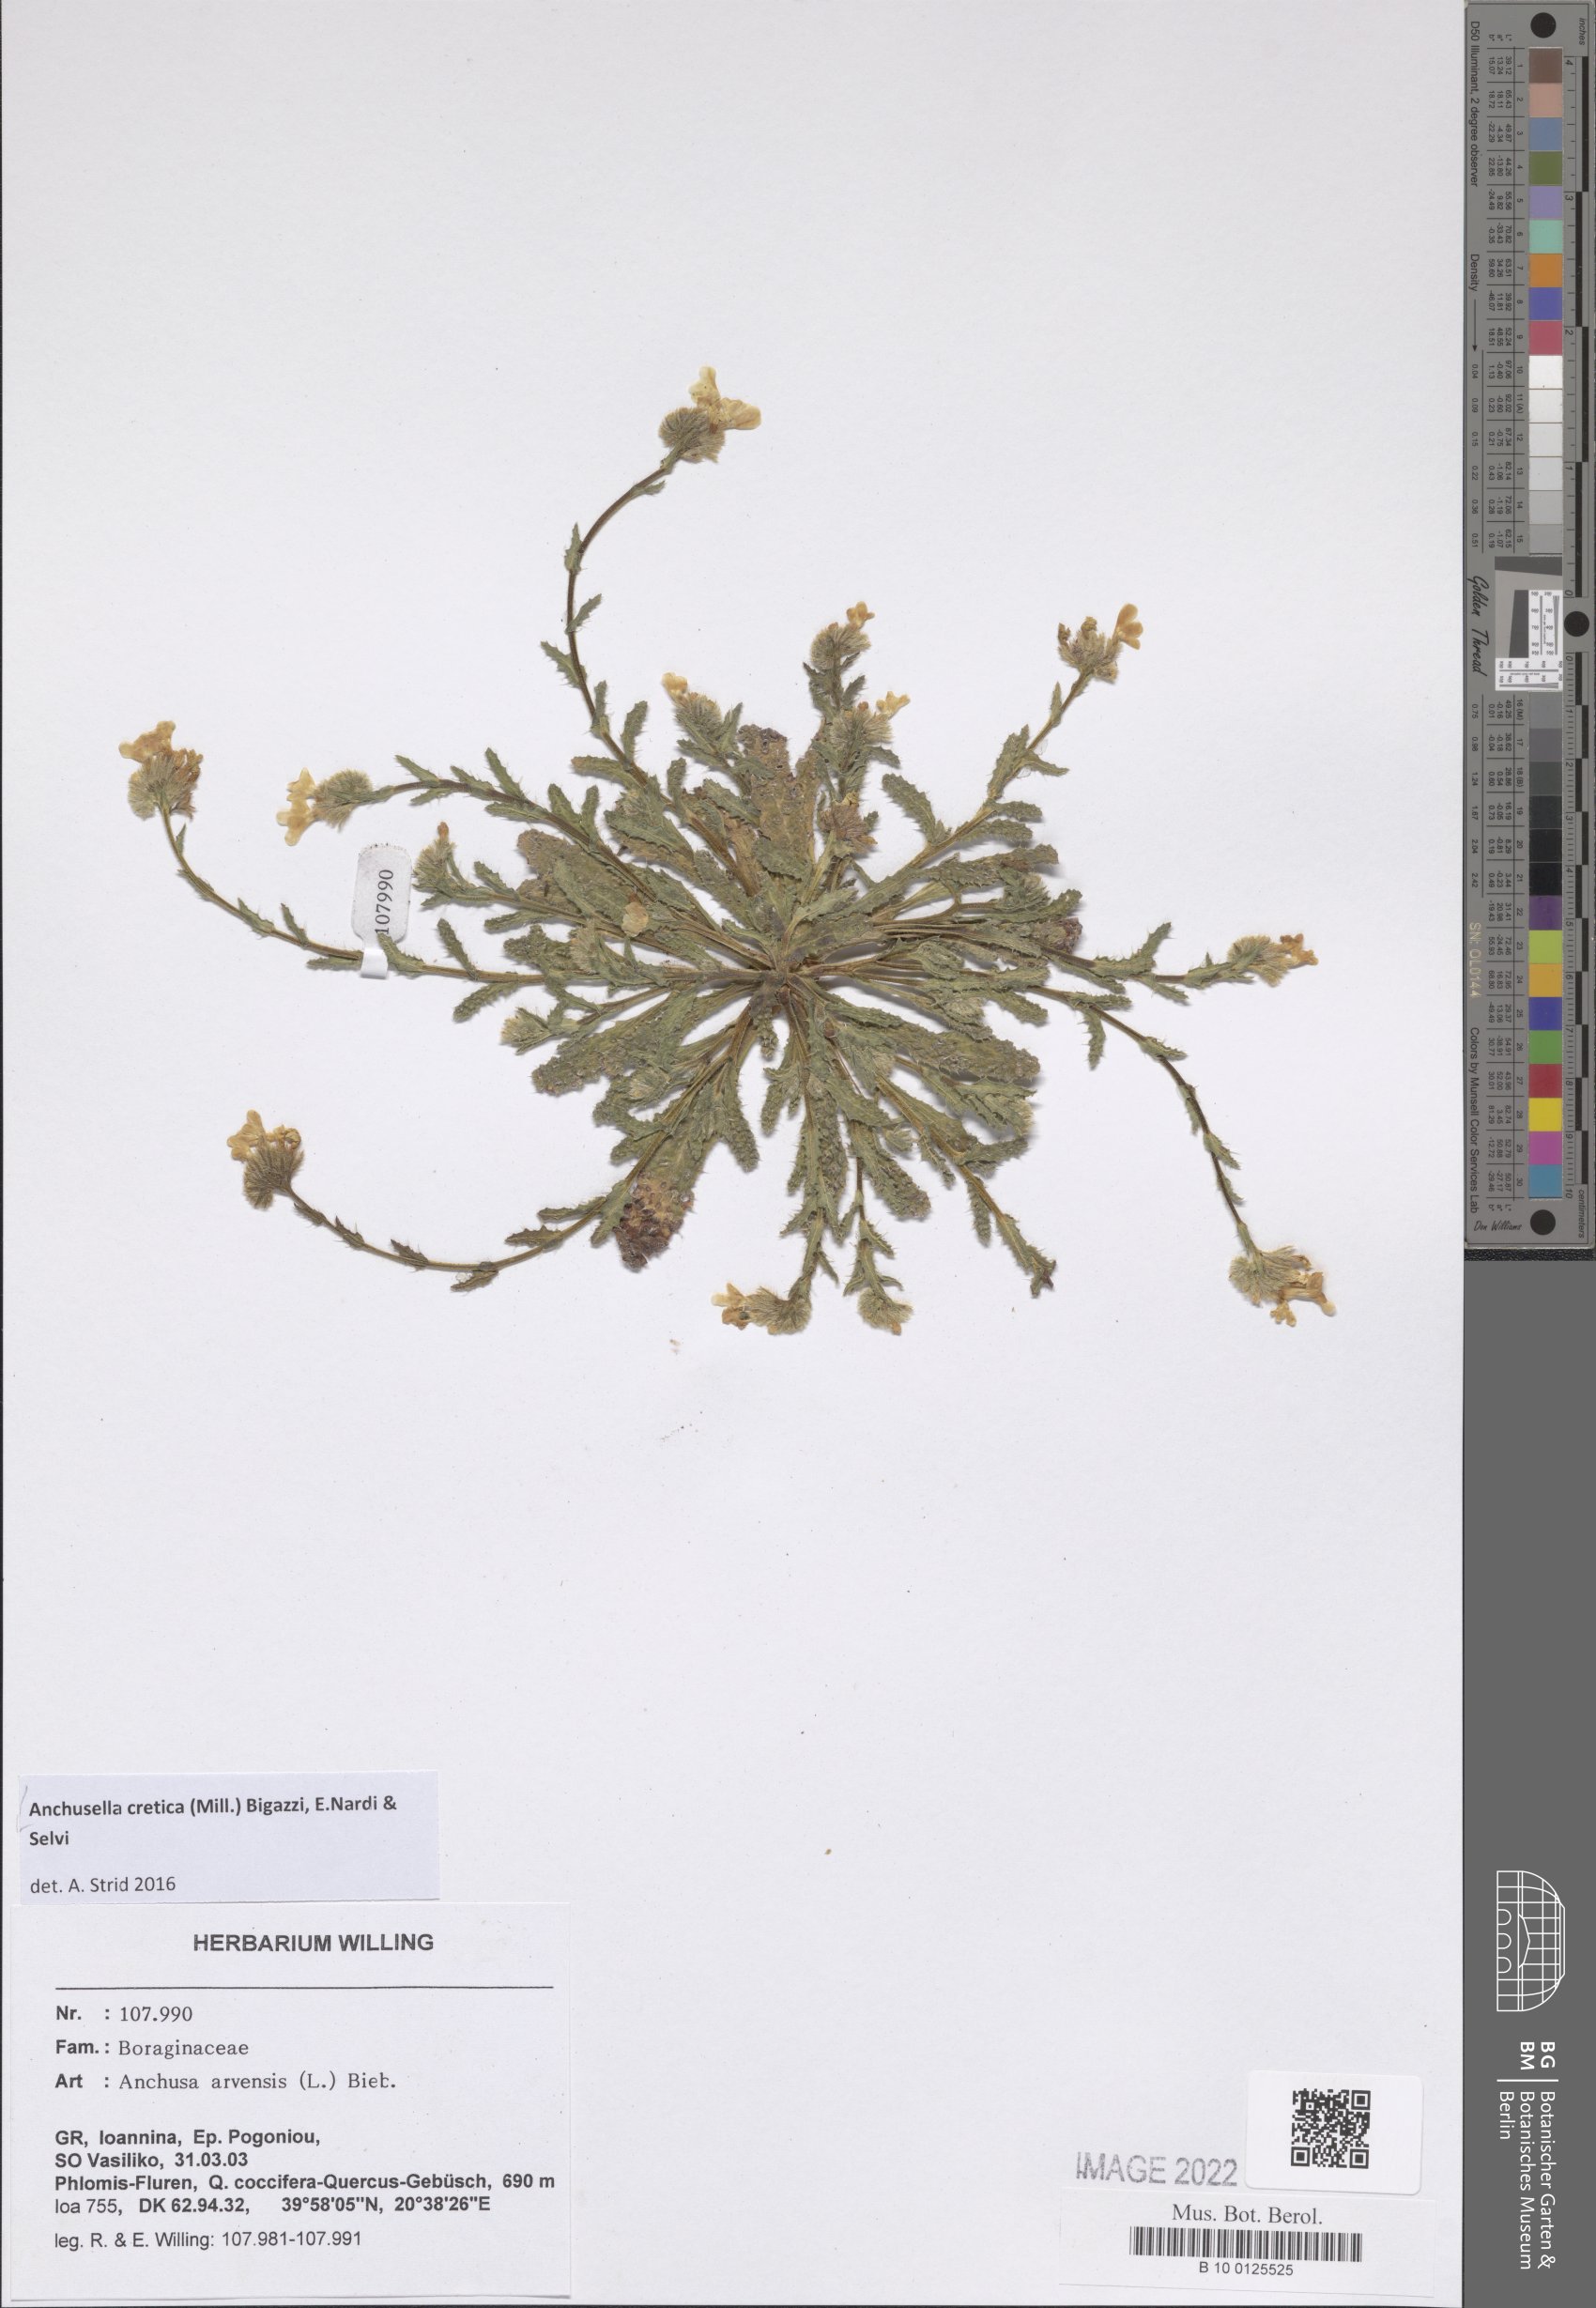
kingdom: Plantae
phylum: Tracheophyta
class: Magnoliopsida
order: Boraginales
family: Boraginaceae
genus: Anchusella
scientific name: Anchusella cretica
